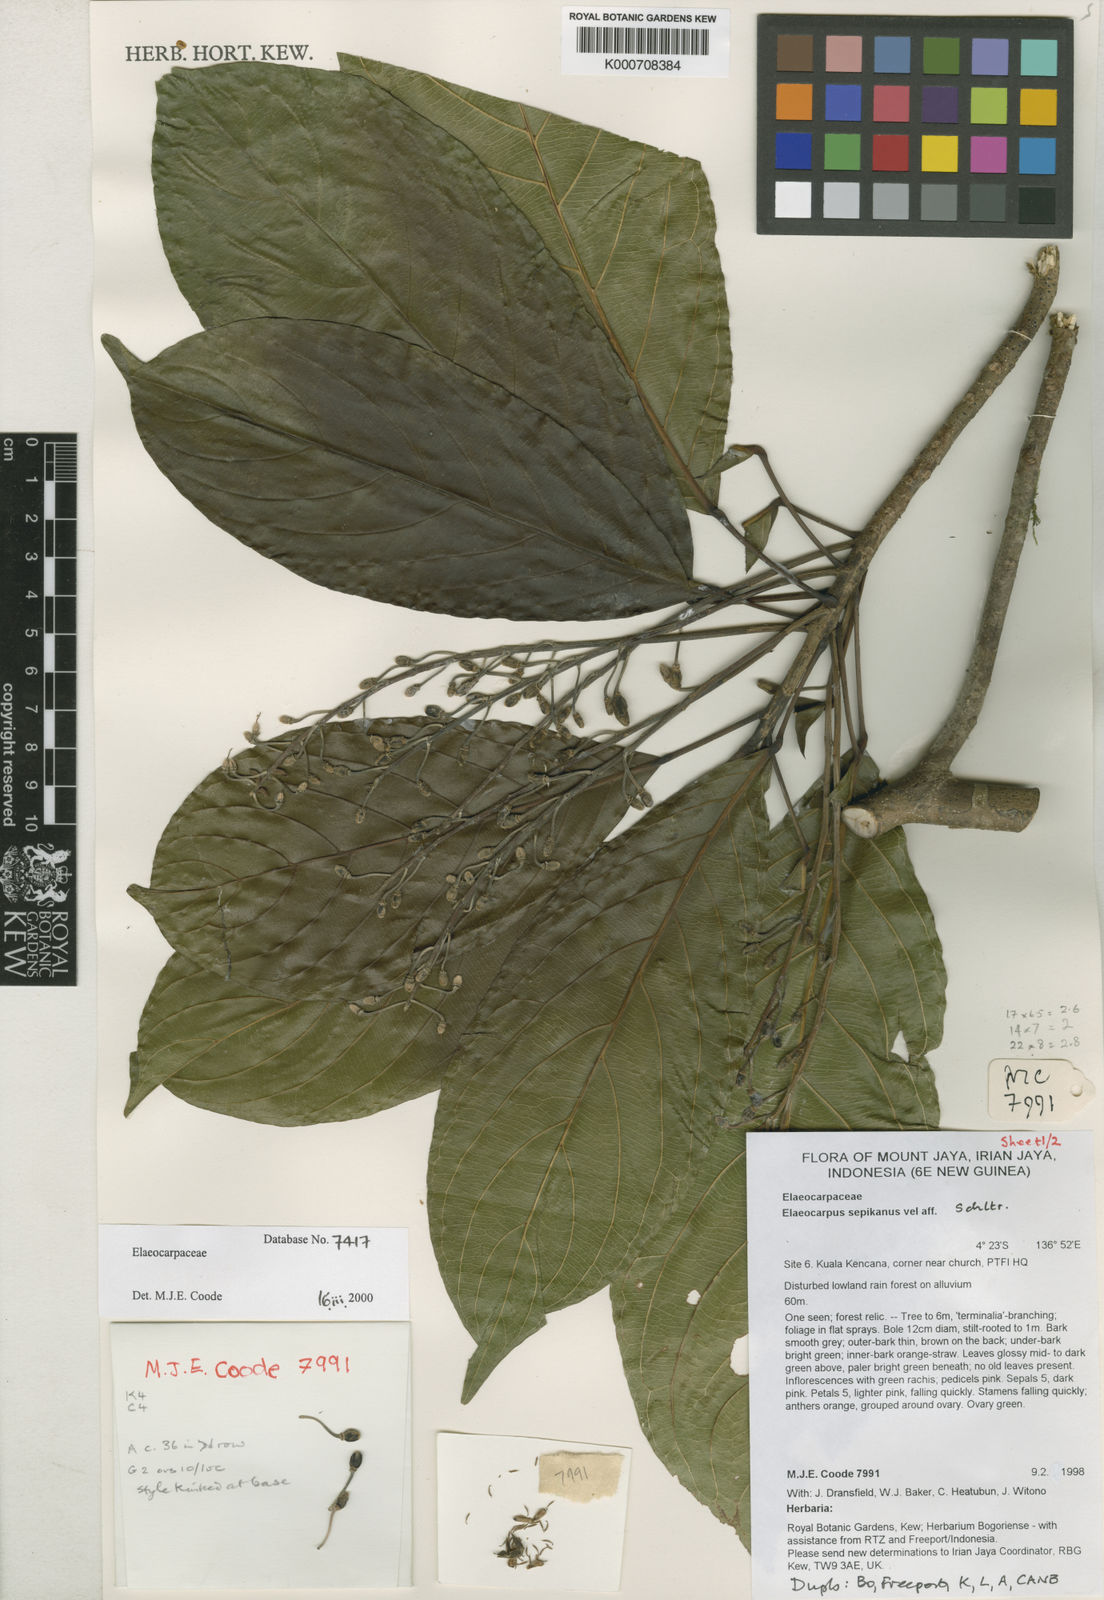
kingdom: Plantae
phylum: Tracheophyta
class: Magnoliopsida
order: Oxalidales
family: Elaeocarpaceae
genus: Elaeocarpus
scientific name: Elaeocarpus sepikanus
